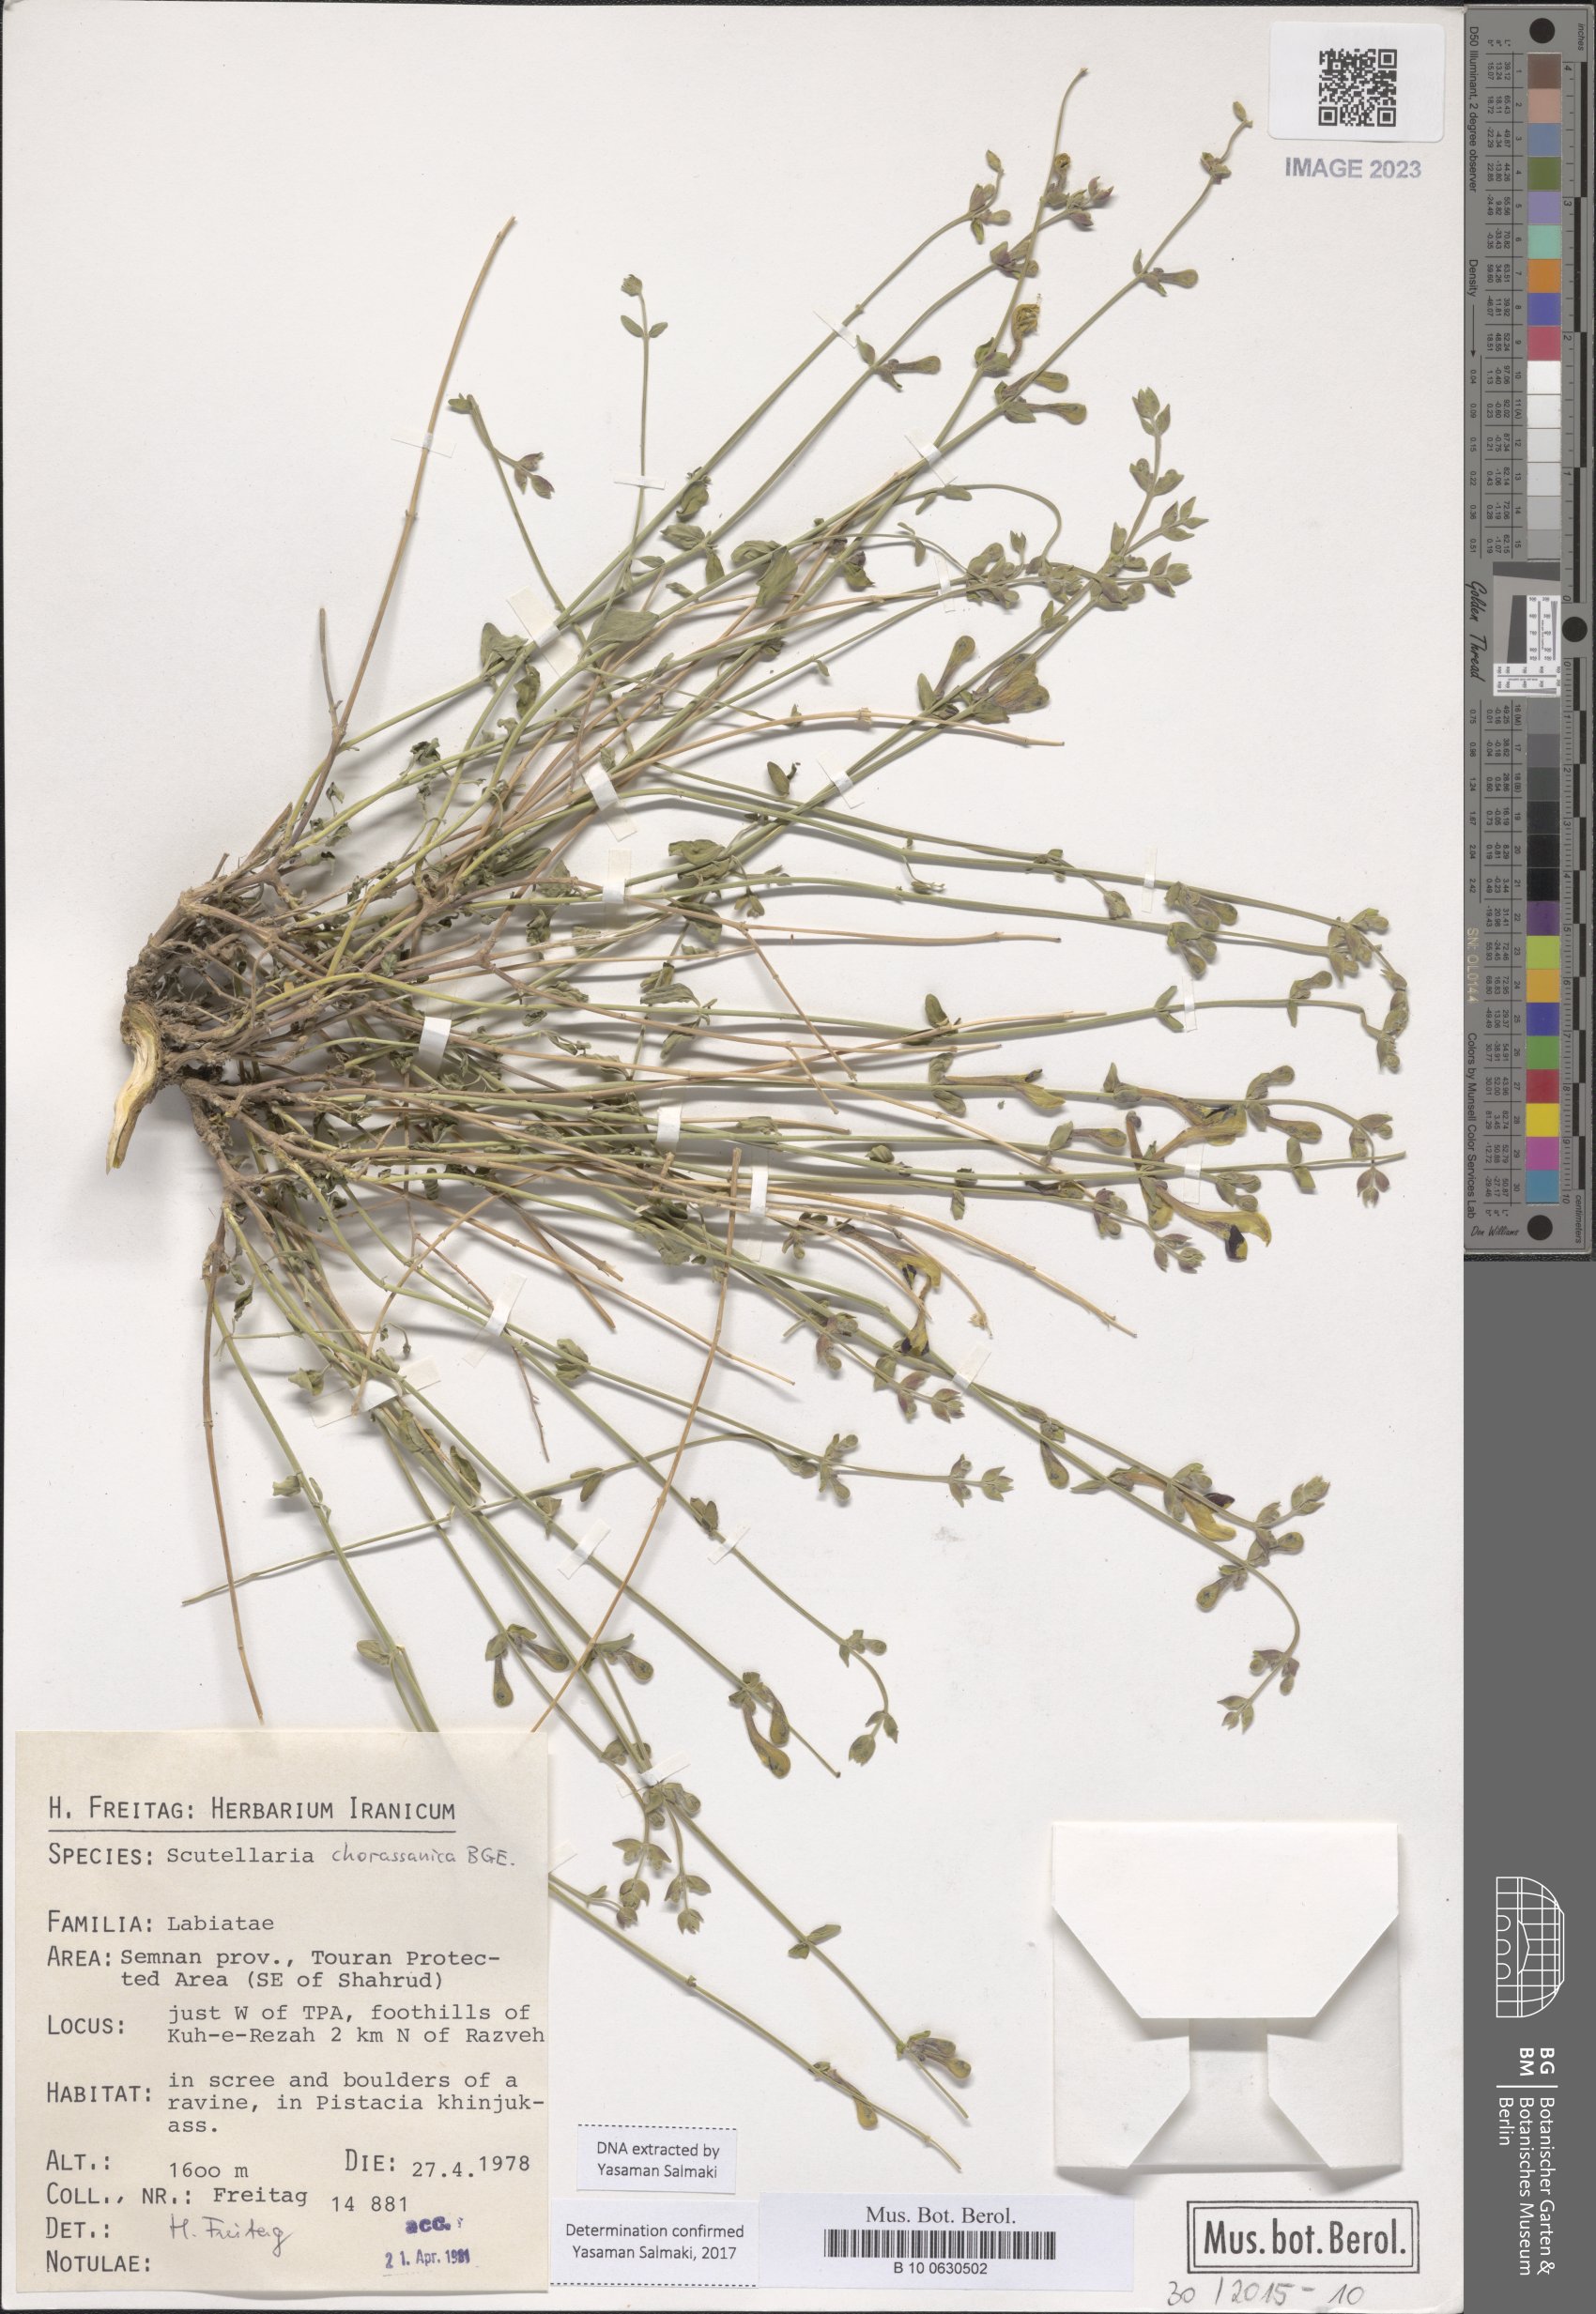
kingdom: Plantae
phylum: Tracheophyta
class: Magnoliopsida
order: Lamiales
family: Lamiaceae
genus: Scutellaria
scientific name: Scutellaria
